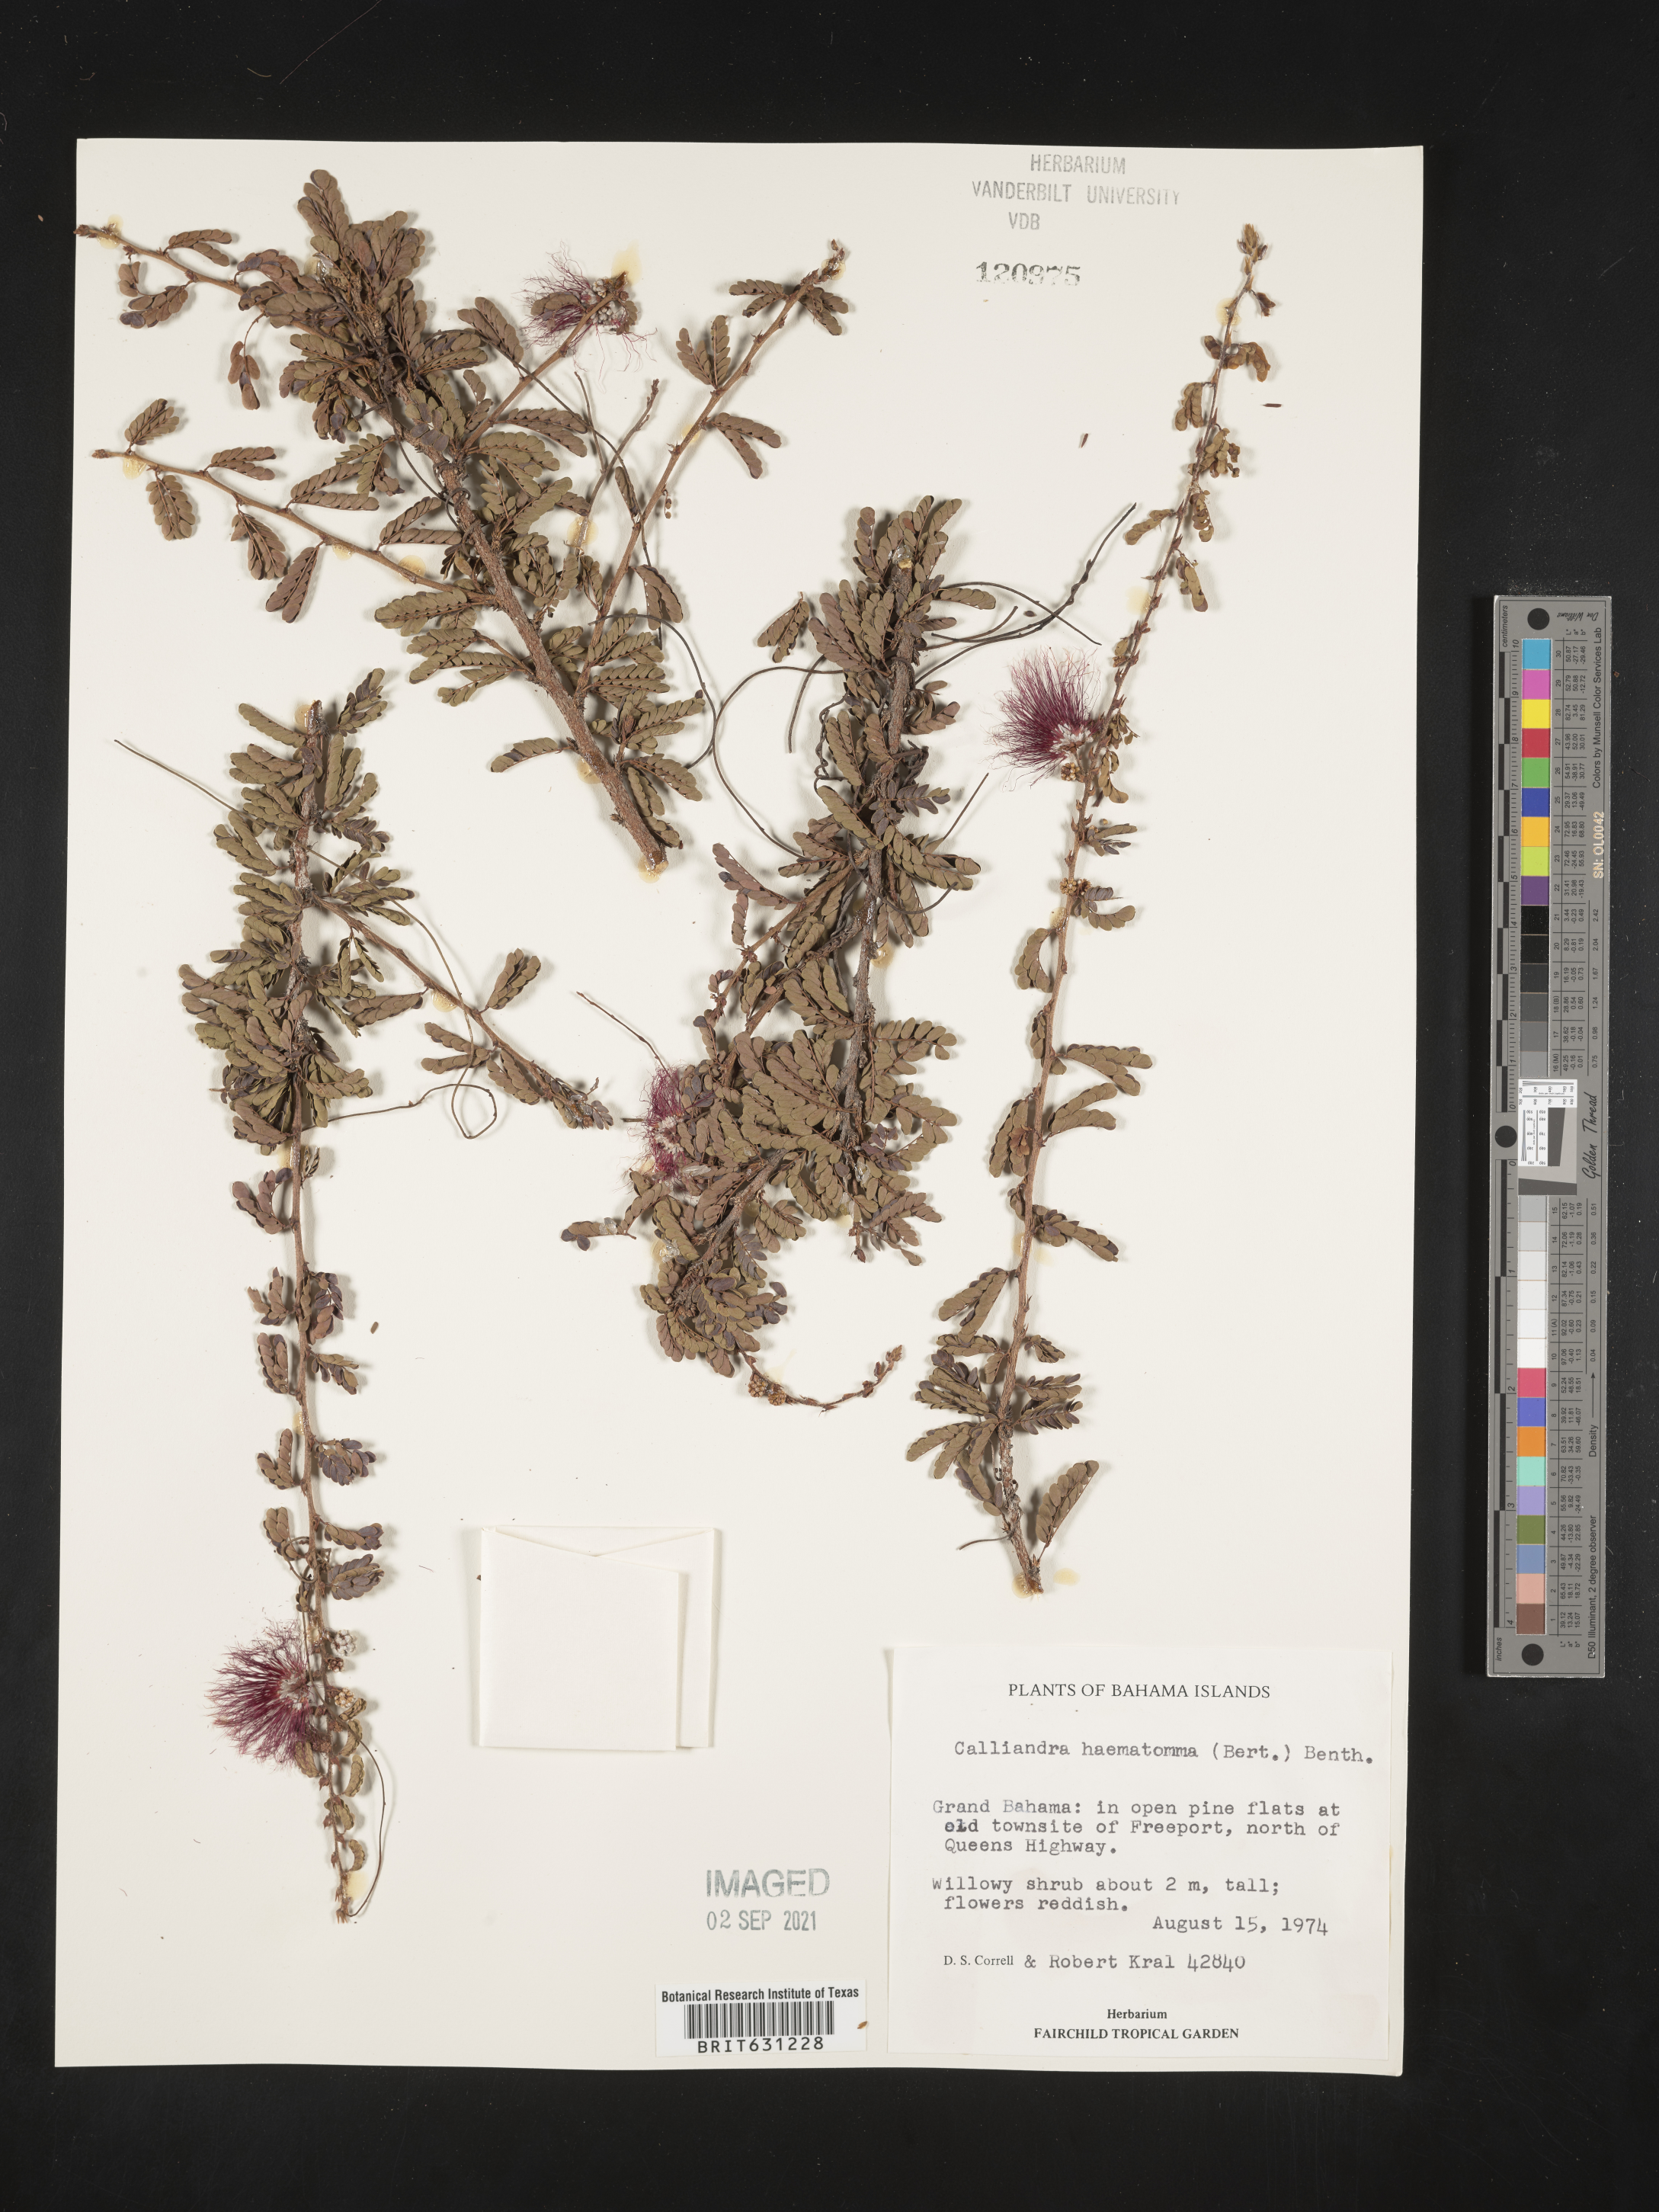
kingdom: Plantae
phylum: Tracheophyta
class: Magnoliopsida
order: Fabales
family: Fabaceae
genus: Calliandra
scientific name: Calliandra haematomma
